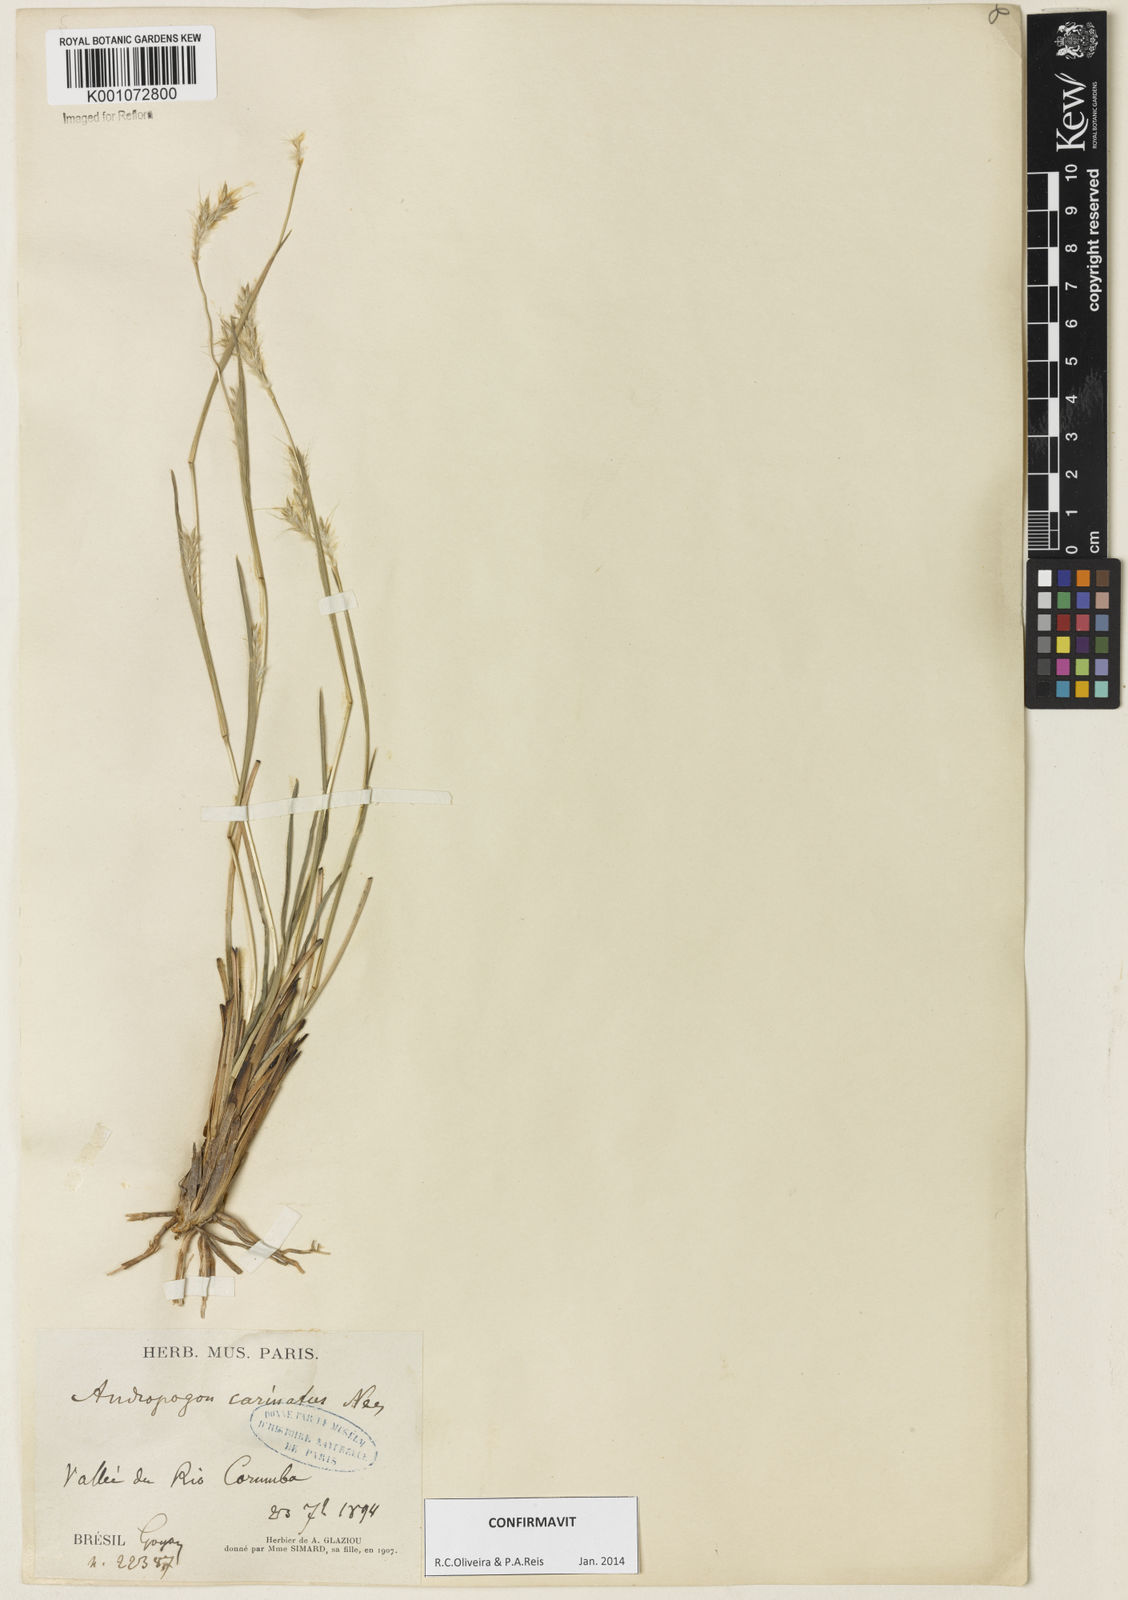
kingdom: Plantae
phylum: Tracheophyta
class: Liliopsida
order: Poales
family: Poaceae
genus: Andropogon
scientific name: Andropogon carinatus
